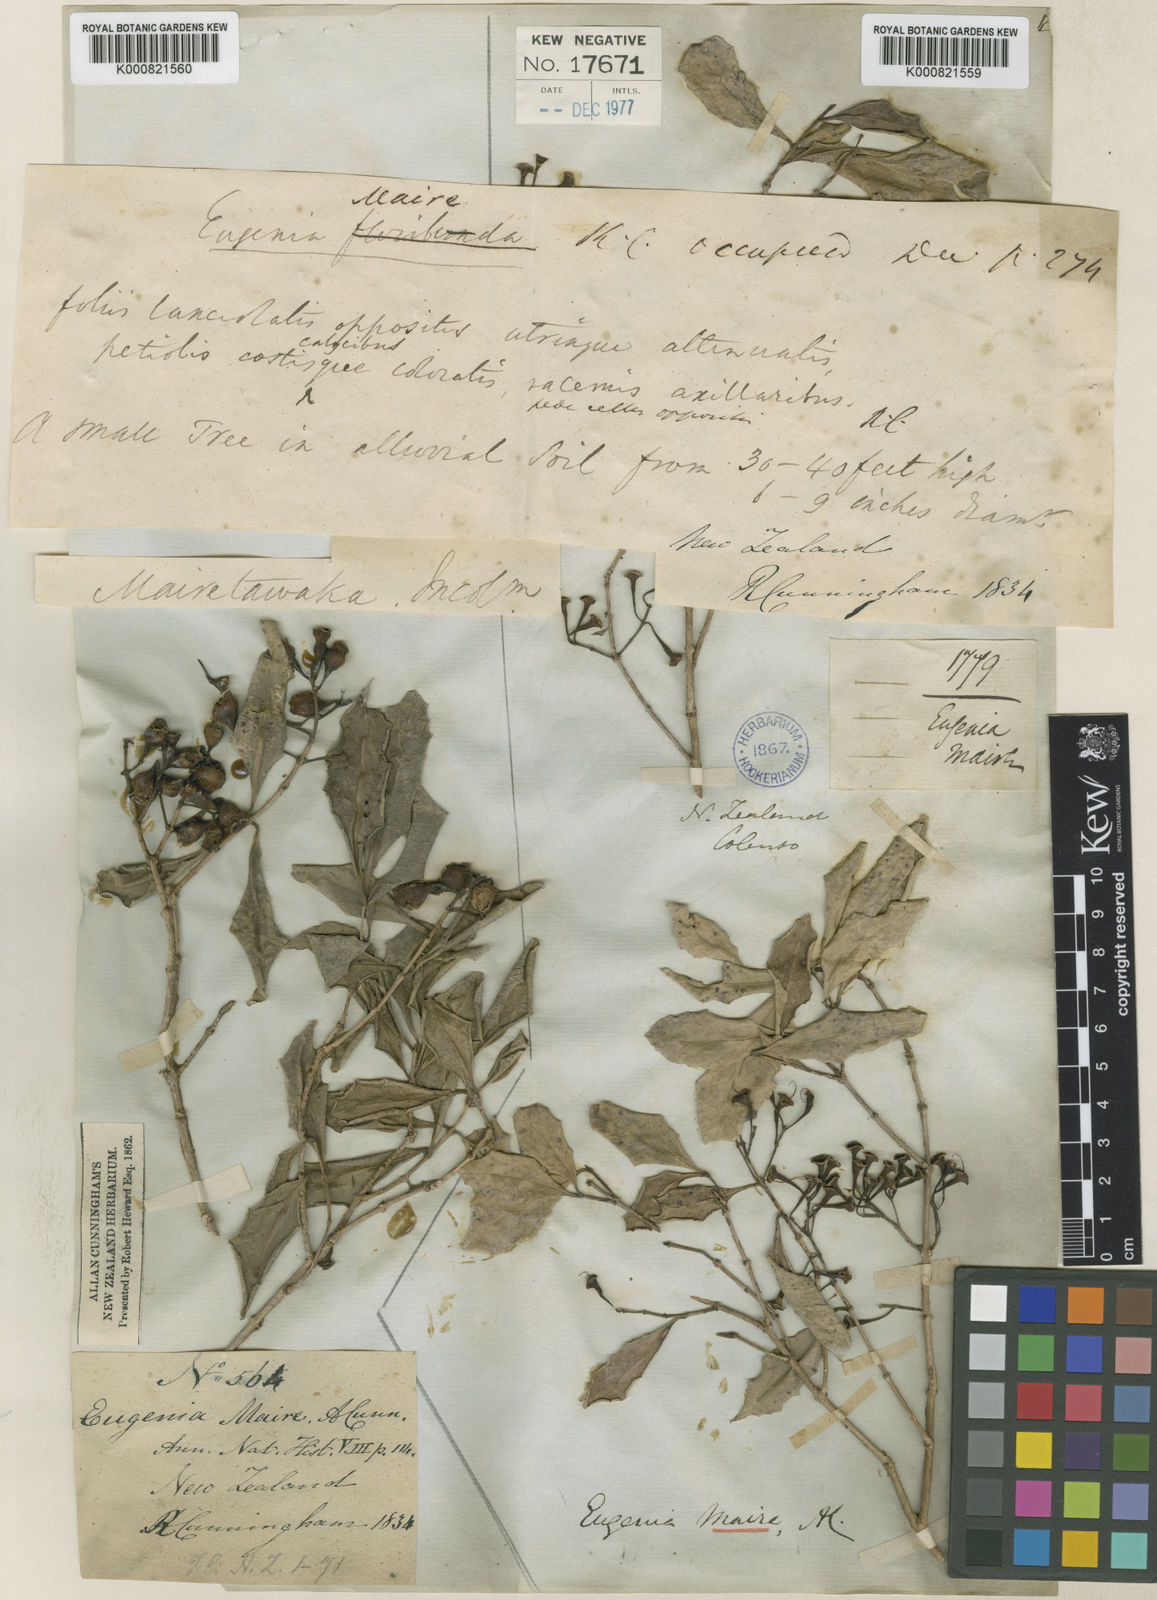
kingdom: Plantae
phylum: Tracheophyta
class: Magnoliopsida
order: Myrtales
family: Myrtaceae
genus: Syzygium
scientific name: Syzygium maire
